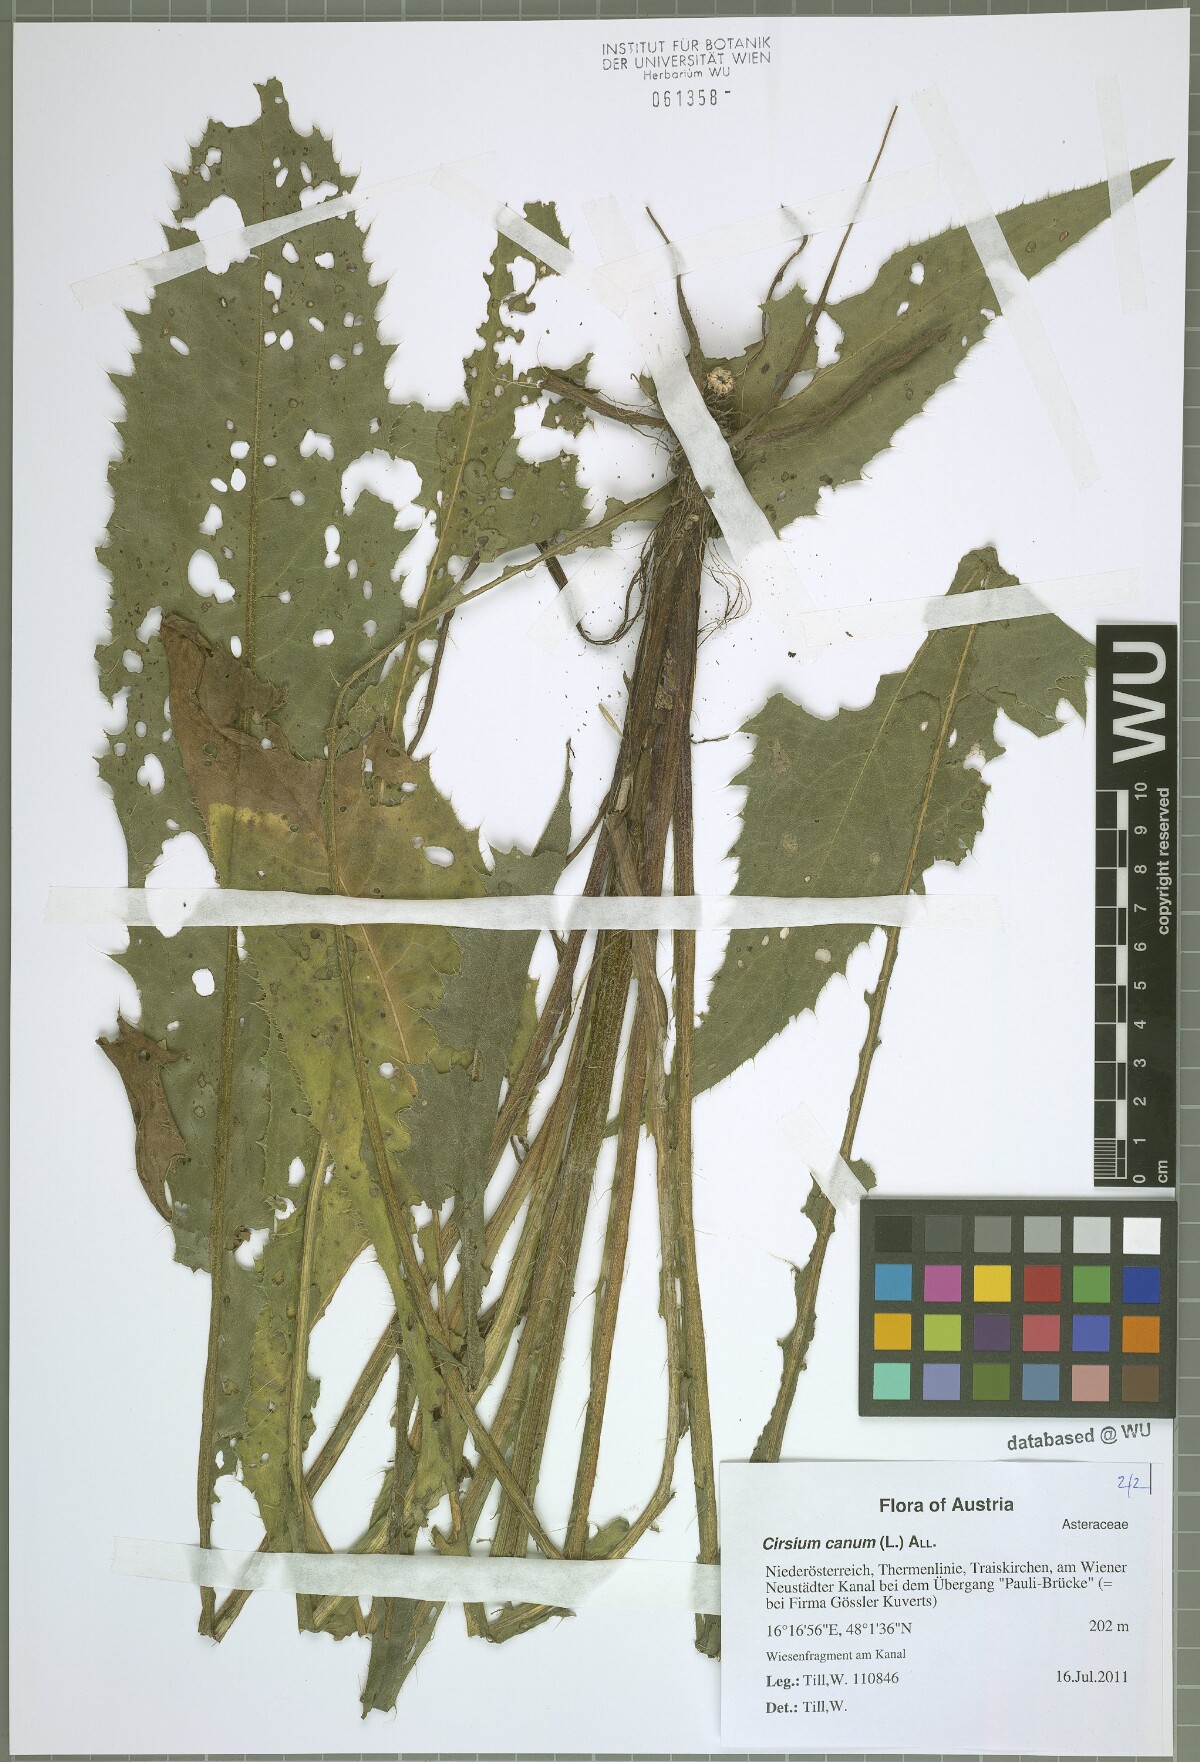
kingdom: Plantae
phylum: Tracheophyta
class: Magnoliopsida
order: Asterales
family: Asteraceae
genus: Cirsium
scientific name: Cirsium canum
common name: Queen anne's thistle
